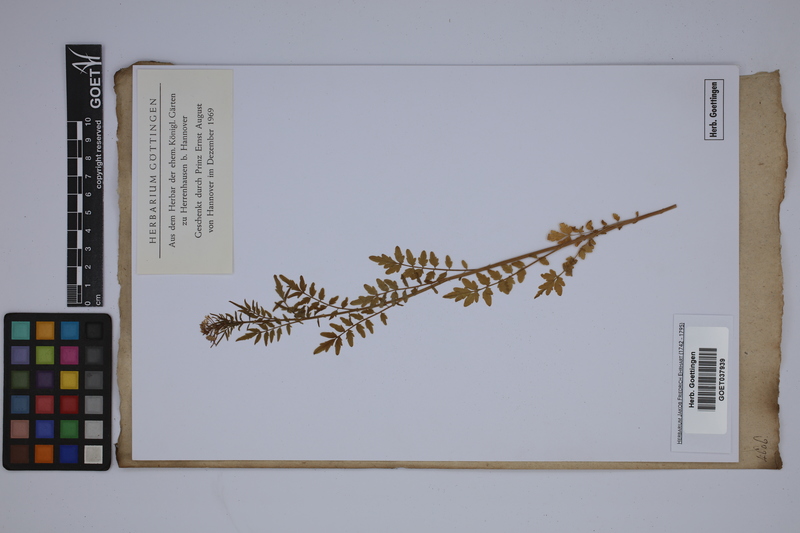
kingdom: Plantae
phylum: Tracheophyta
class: Magnoliopsida
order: Brassicales
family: Brassicaceae
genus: Cardamine
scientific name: Cardamine impatiens
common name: Narrow-leaved bitter-cress
